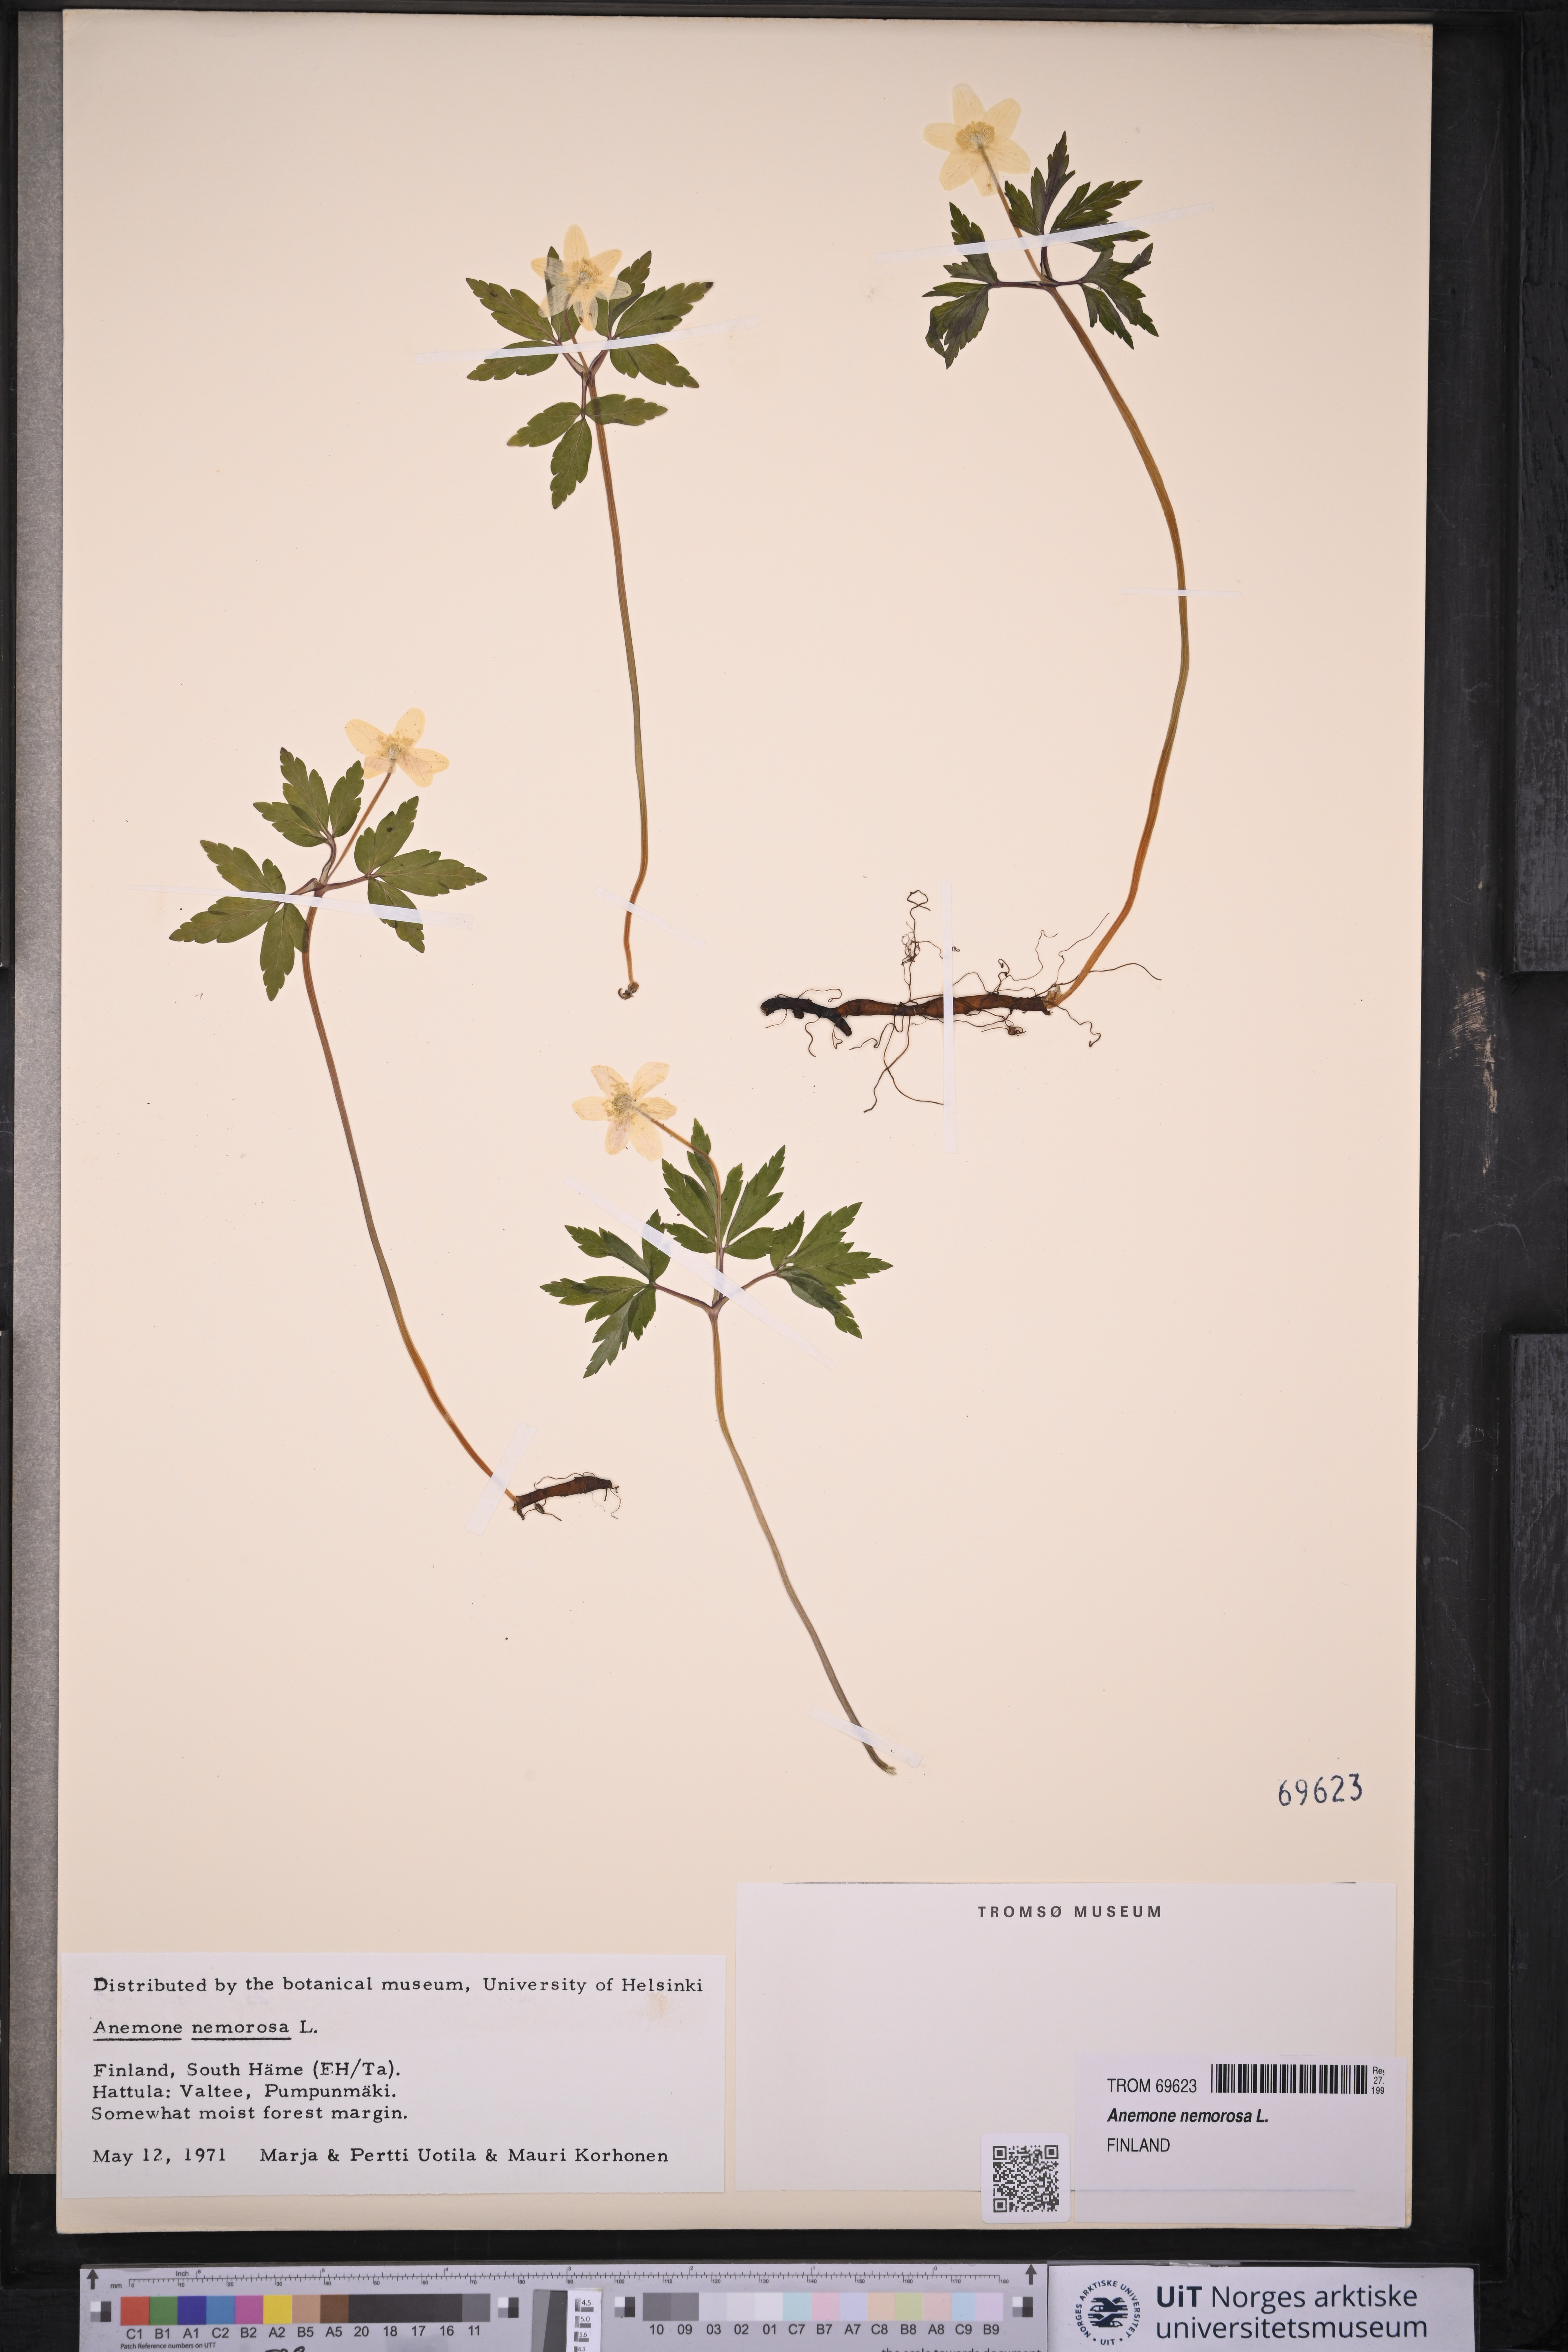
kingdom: Plantae
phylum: Tracheophyta
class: Magnoliopsida
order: Ranunculales
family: Ranunculaceae
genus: Anemone
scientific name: Anemone nemorosa
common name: Wood anemone
